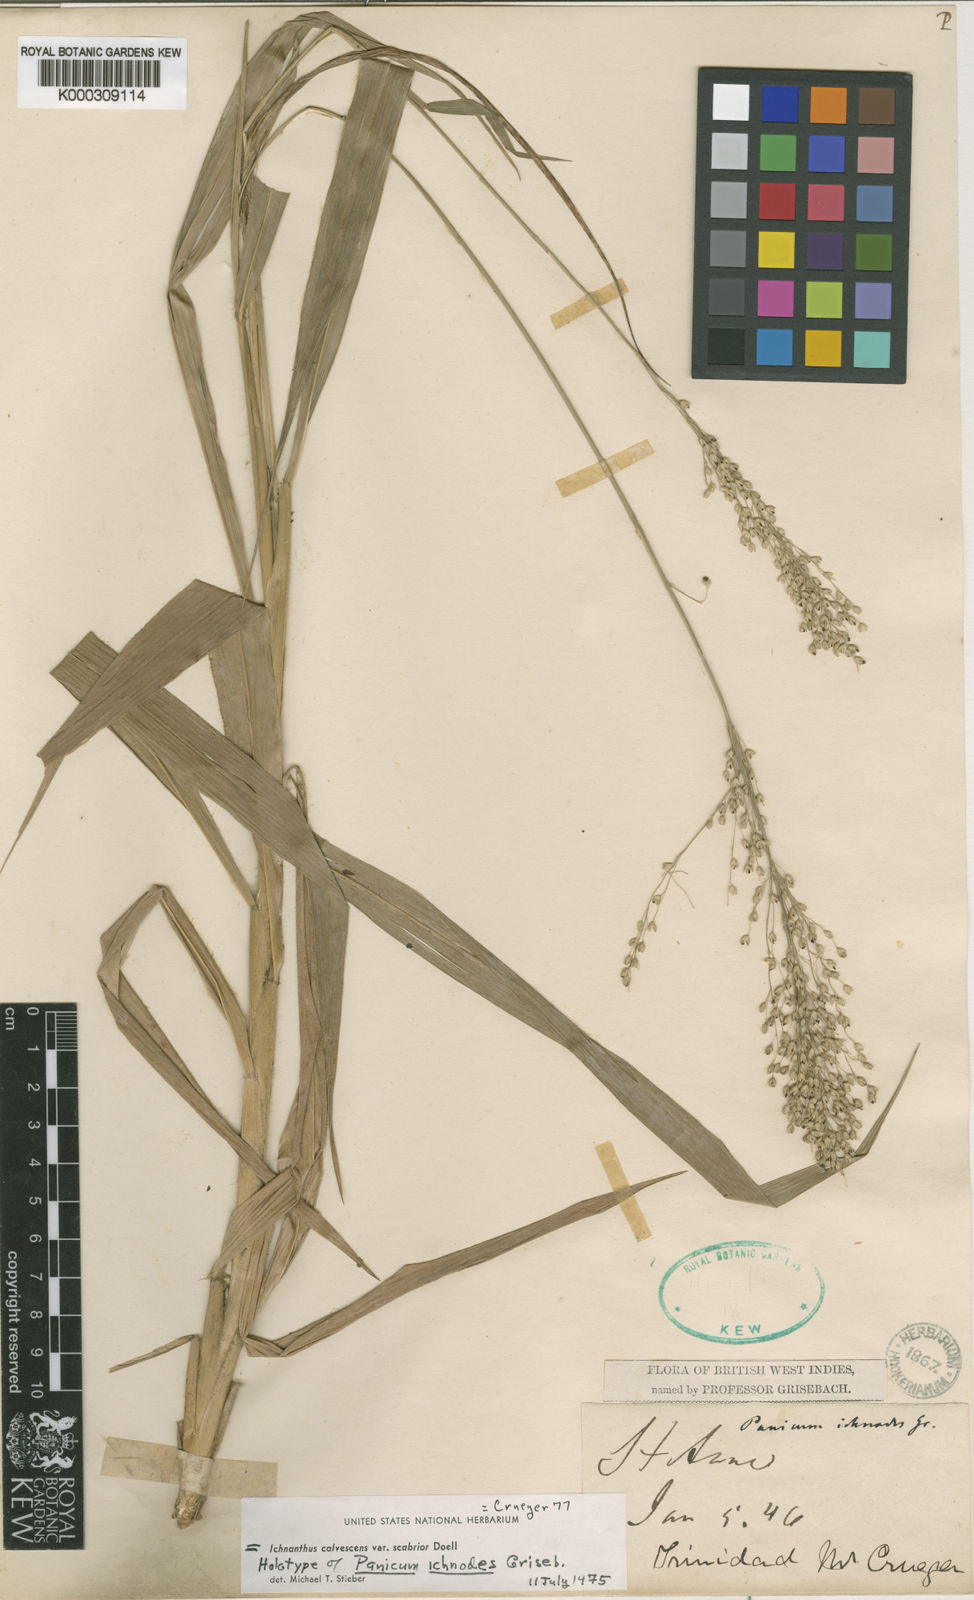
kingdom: Plantae
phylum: Tracheophyta
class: Liliopsida
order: Poales
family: Poaceae
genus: Ichnanthus
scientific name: Ichnanthus
